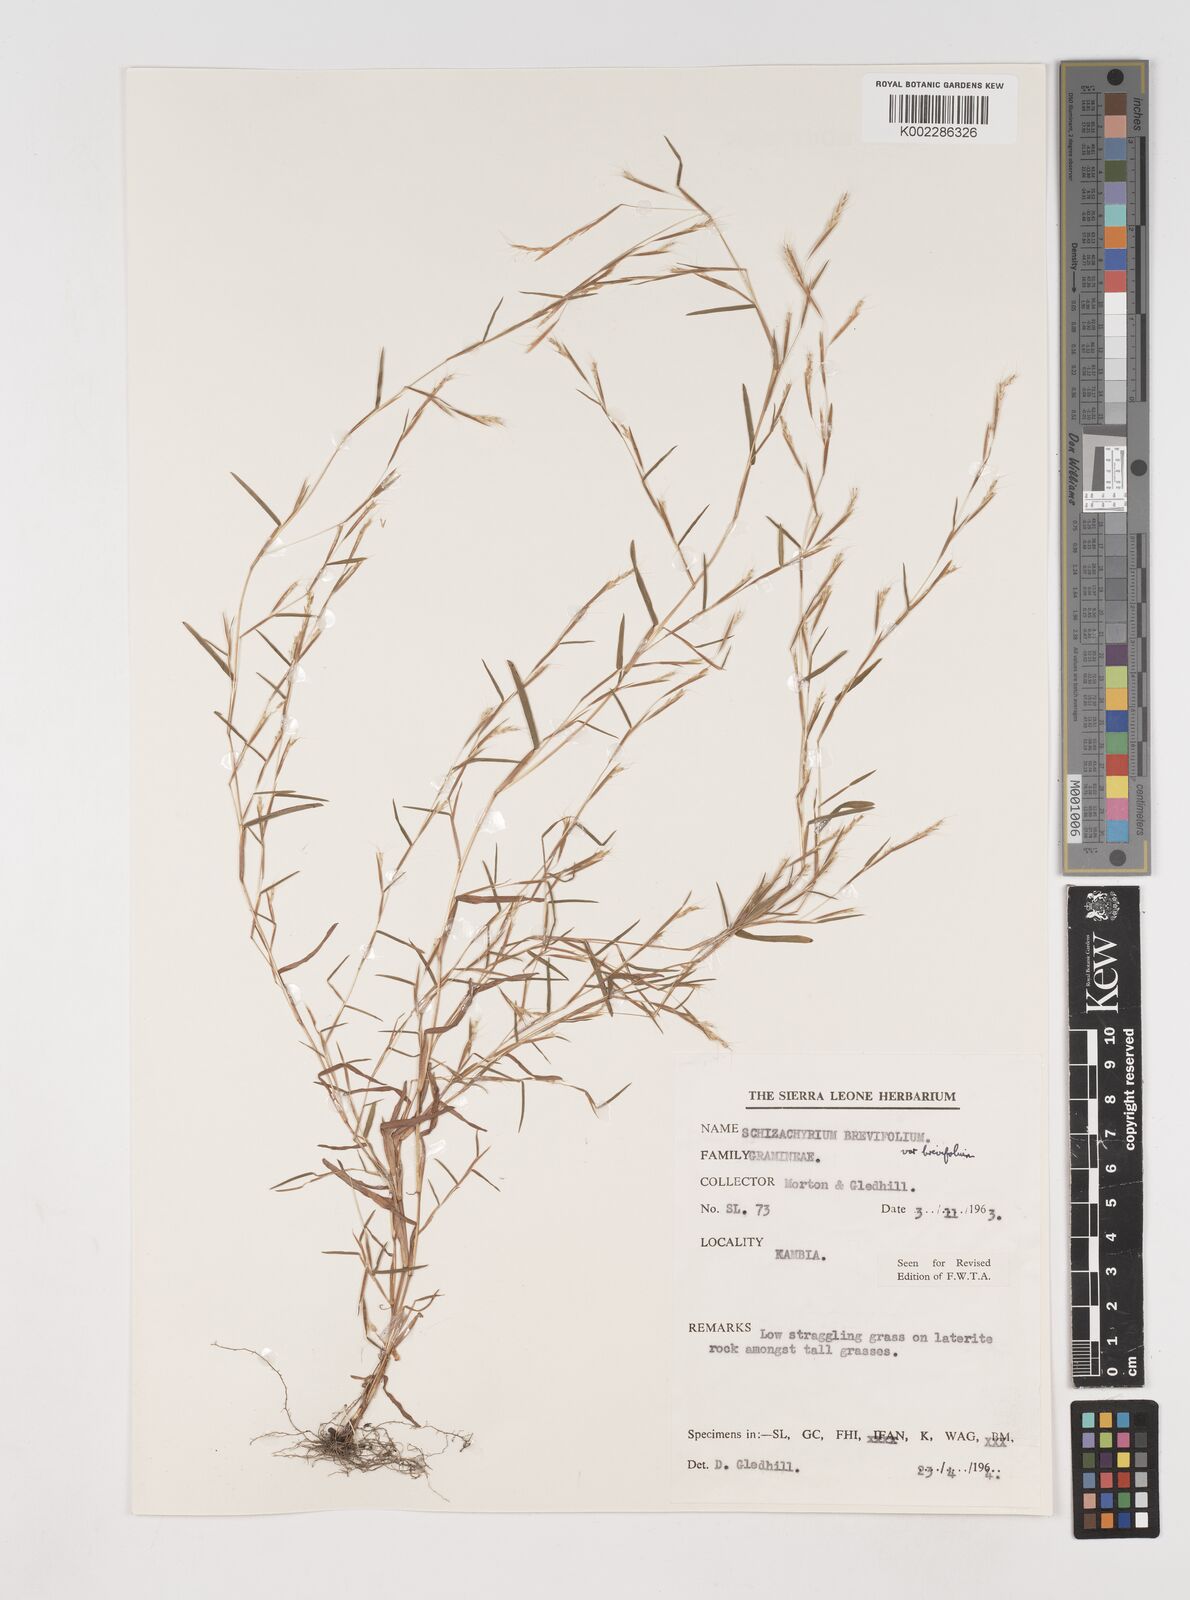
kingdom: Plantae
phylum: Tracheophyta
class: Liliopsida
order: Poales
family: Poaceae
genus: Schizachyrium
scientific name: Schizachyrium brevifolium
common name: Serillo dulce
